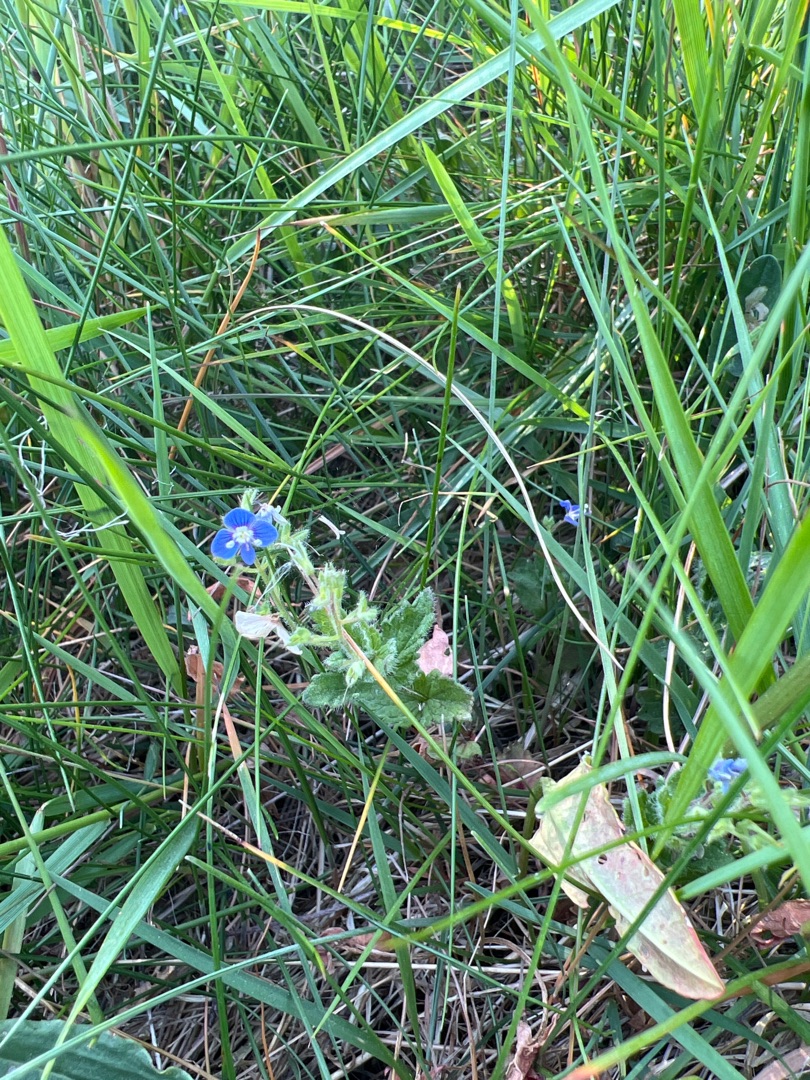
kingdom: Plantae
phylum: Tracheophyta
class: Magnoliopsida
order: Lamiales
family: Plantaginaceae
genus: Veronica
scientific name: Veronica chamaedrys
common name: Tveskægget ærenpris
